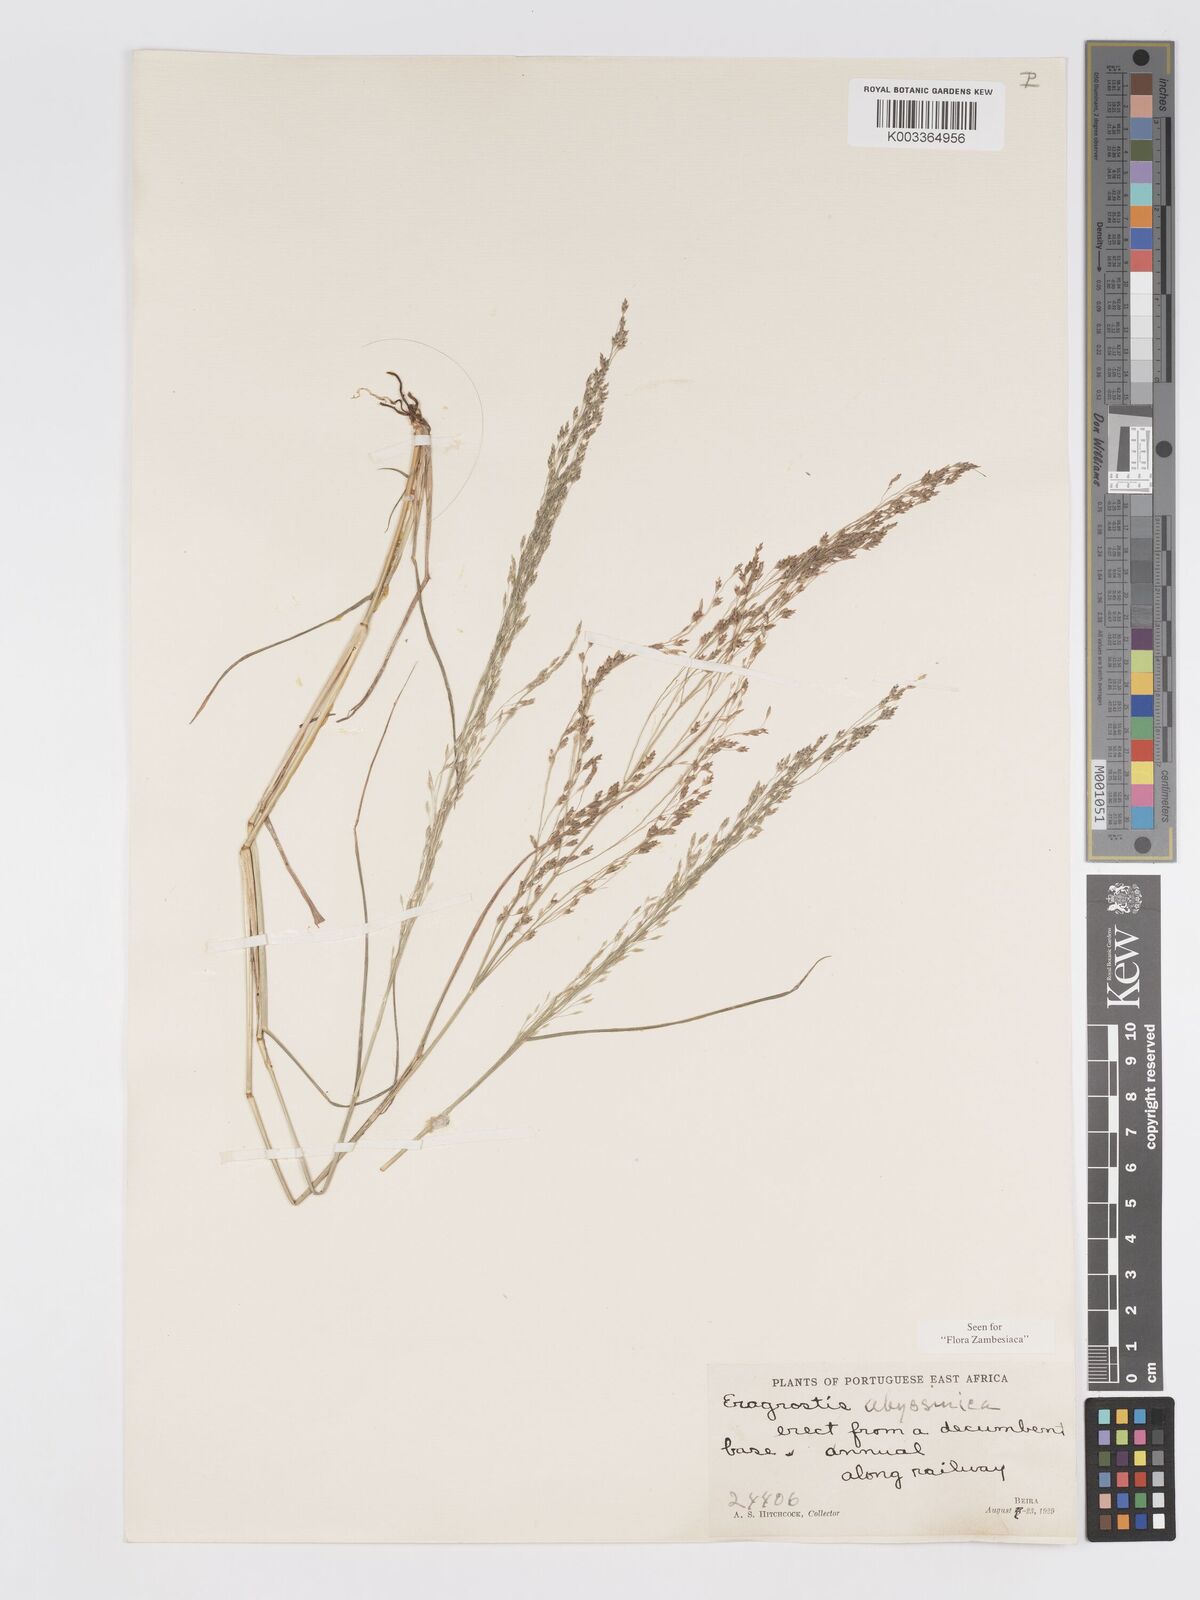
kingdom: Plantae
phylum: Tracheophyta
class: Liliopsida
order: Poales
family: Poaceae
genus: Eragrostis
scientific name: Eragrostis tef
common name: Teff
